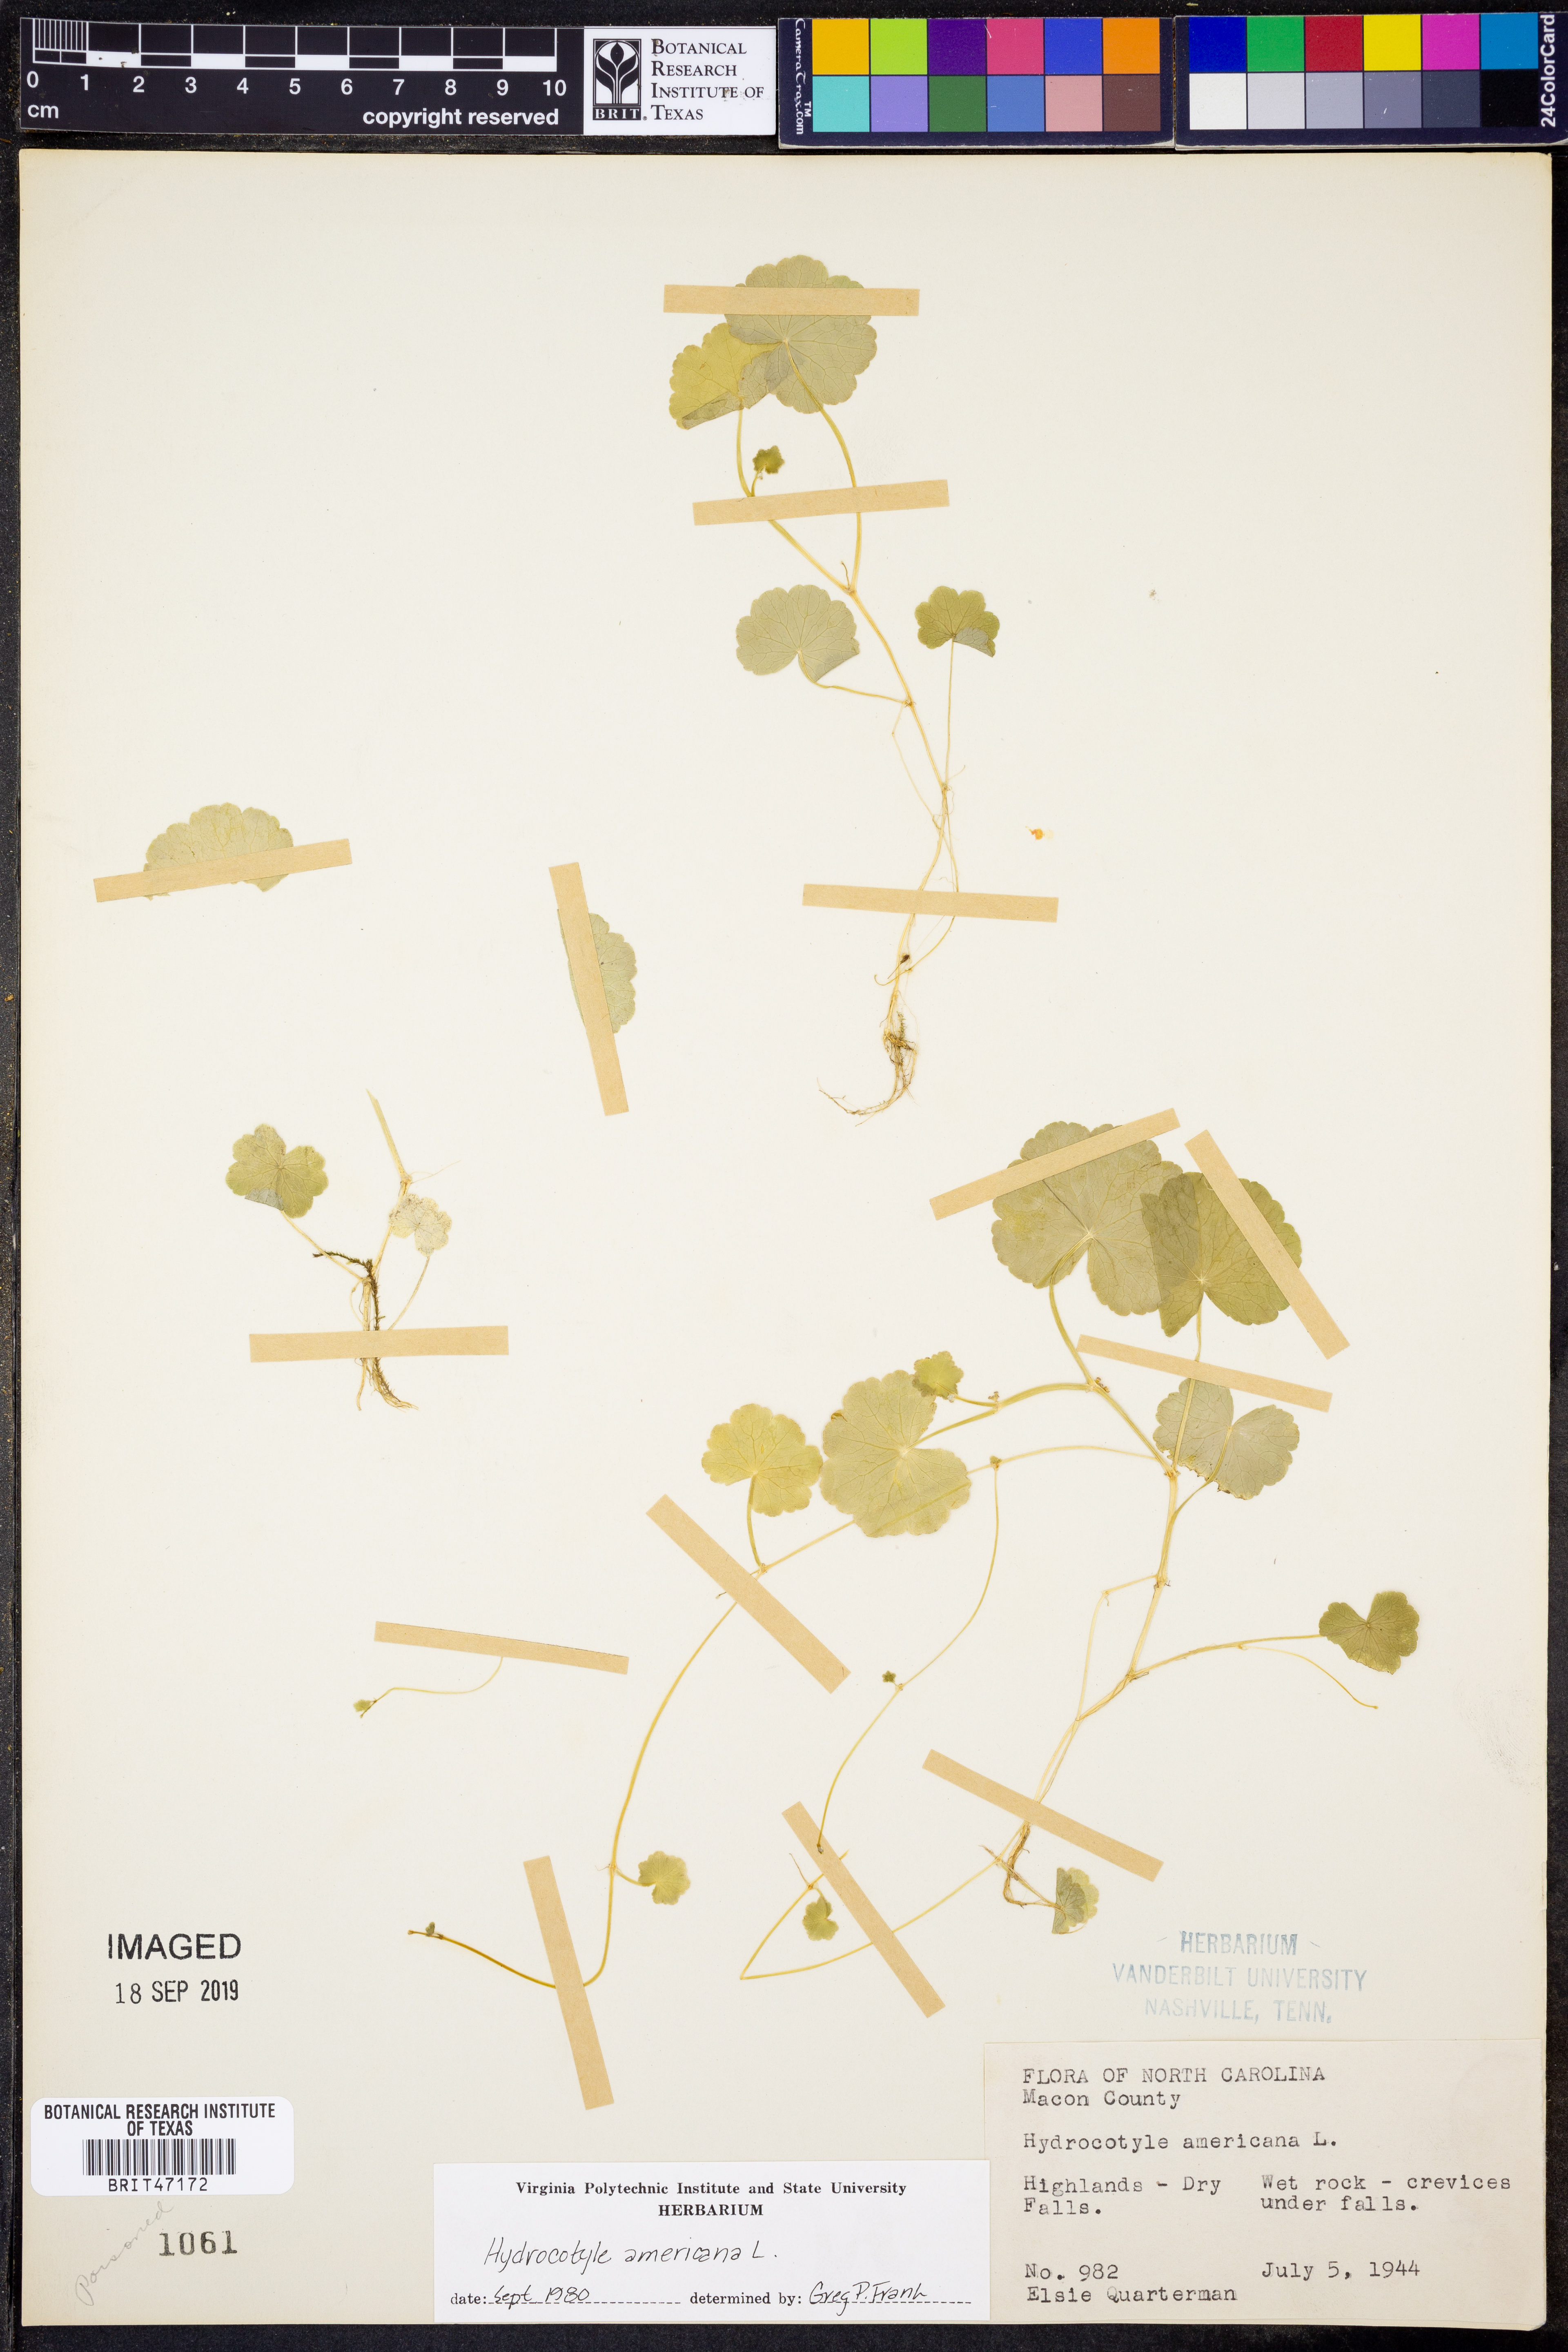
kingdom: Plantae
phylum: Tracheophyta
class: Magnoliopsida
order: Apiales
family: Araliaceae
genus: Hydrocotyle
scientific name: Hydrocotyle americana
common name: American water-pennywort
